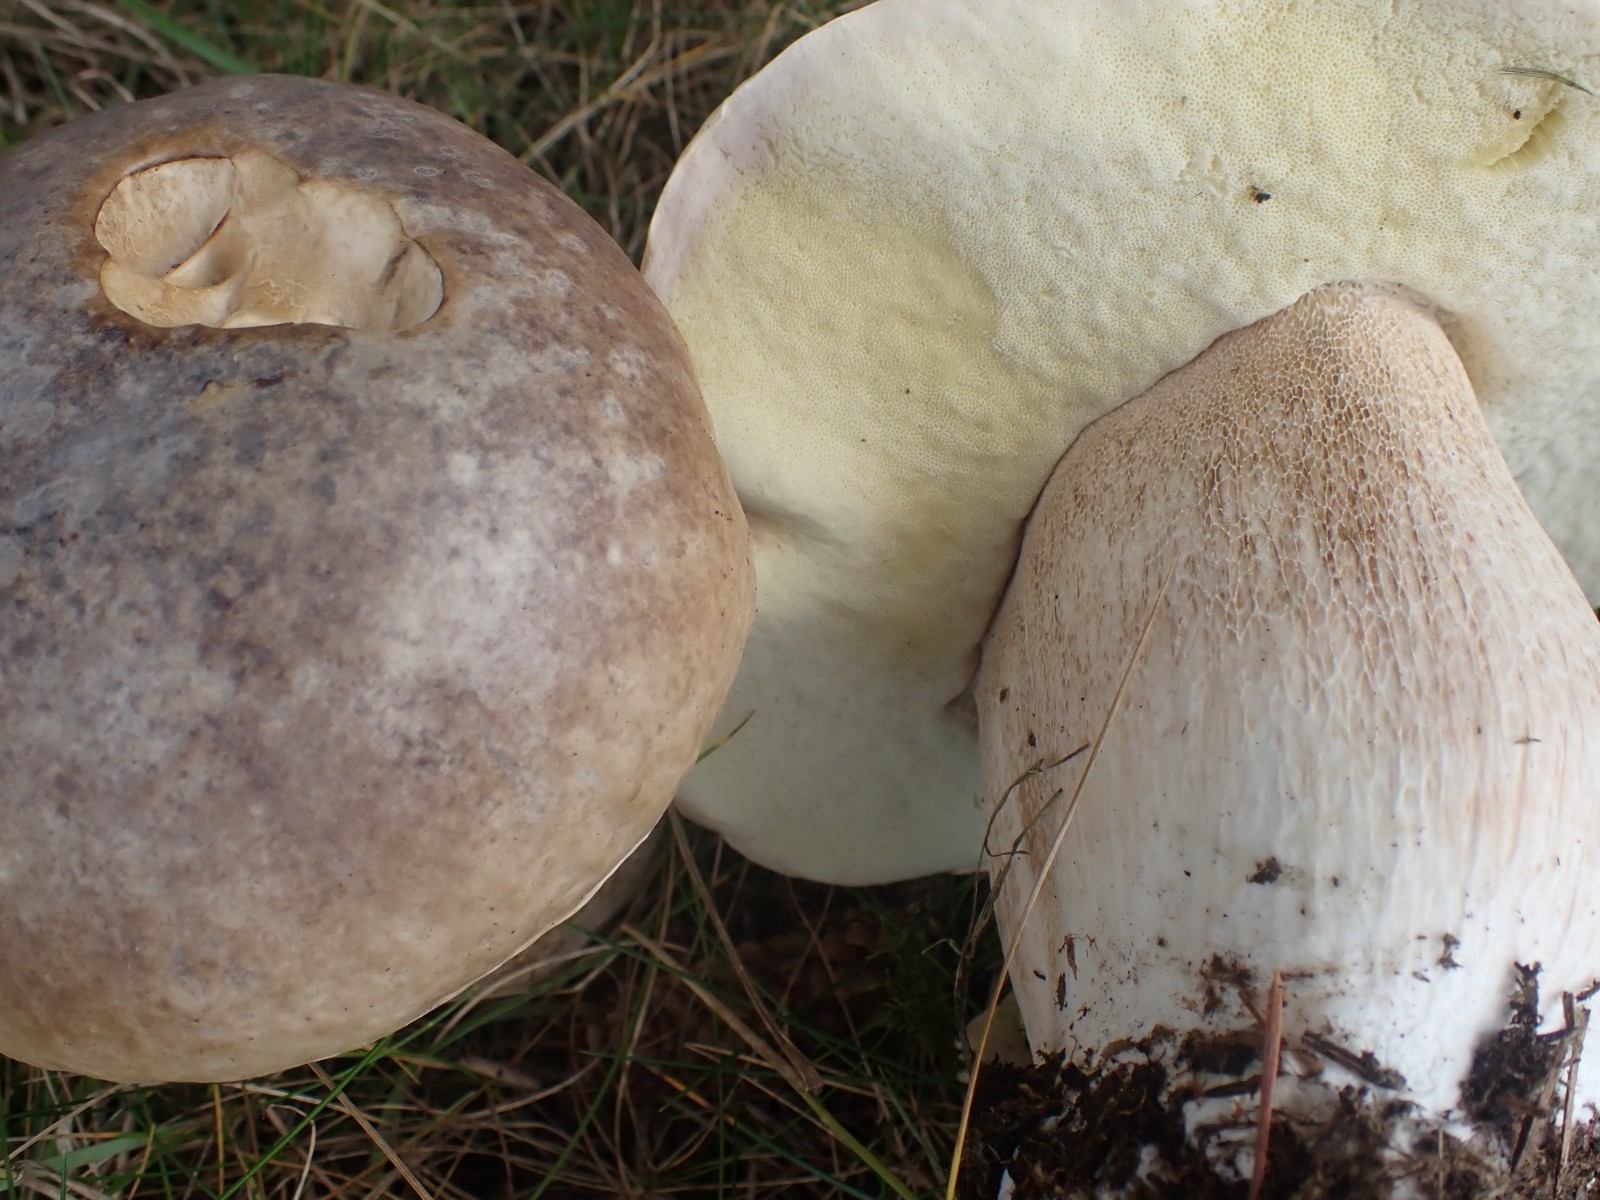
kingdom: Fungi
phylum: Basidiomycota
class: Agaricomycetes
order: Boletales
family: Boletaceae
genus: Boletus
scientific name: Boletus edulis
